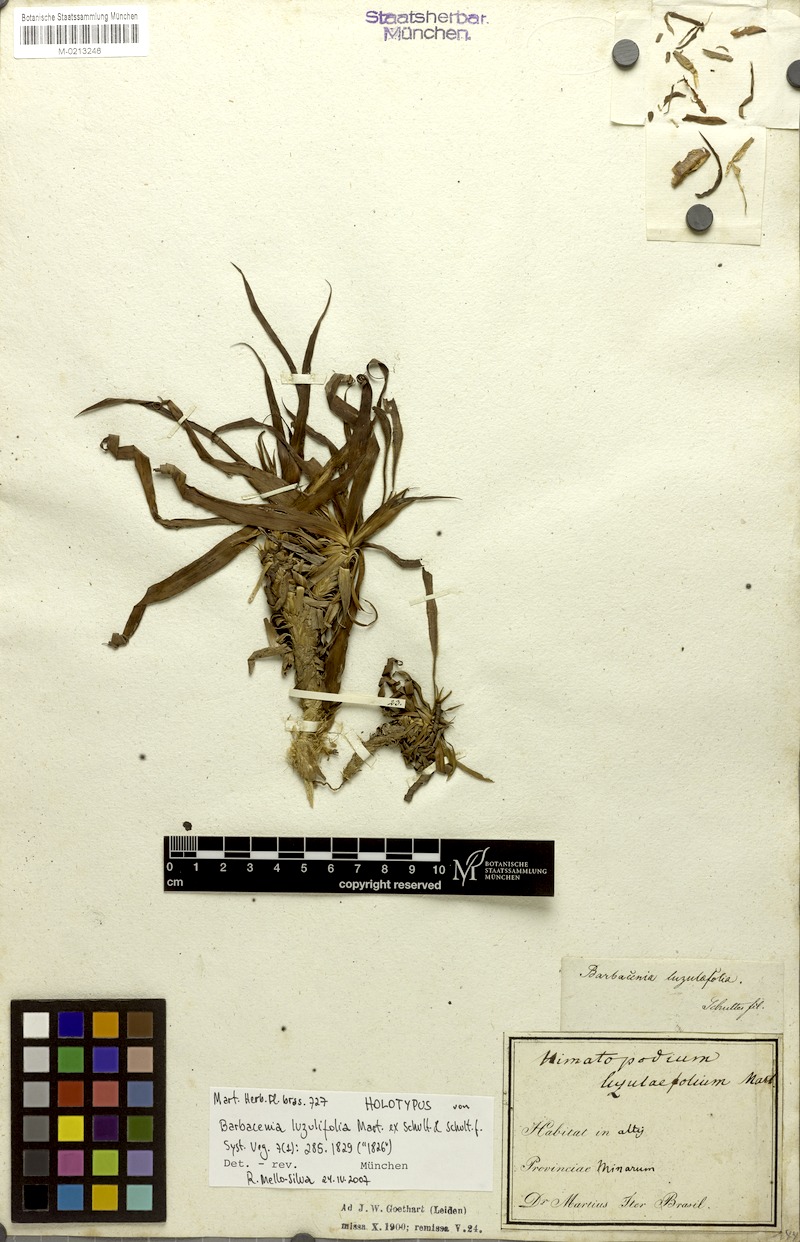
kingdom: Plantae
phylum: Tracheophyta
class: Liliopsida
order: Pandanales
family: Velloziaceae
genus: Barbacenia
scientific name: Barbacenia luzulifolia
